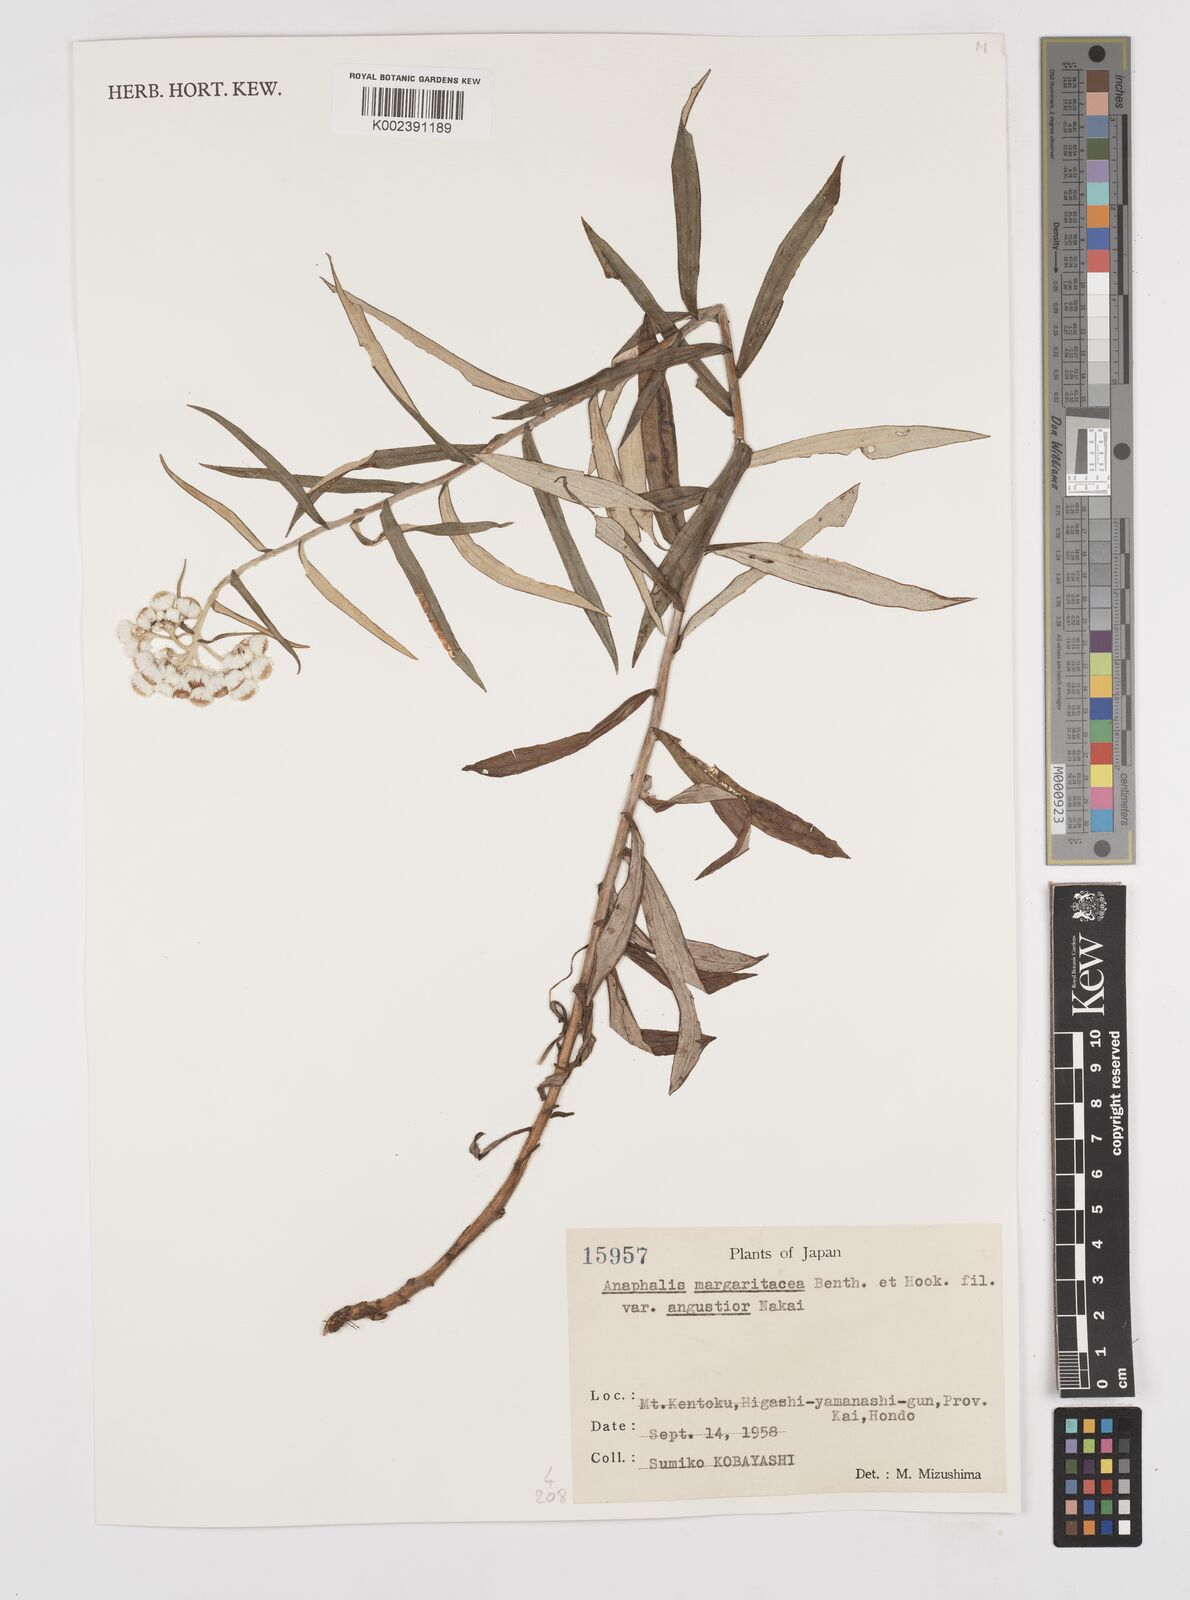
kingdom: Plantae
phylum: Tracheophyta
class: Magnoliopsida
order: Asterales
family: Asteraceae
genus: Anaphalis
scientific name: Anaphalis margaritacea
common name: Pearly everlasting
